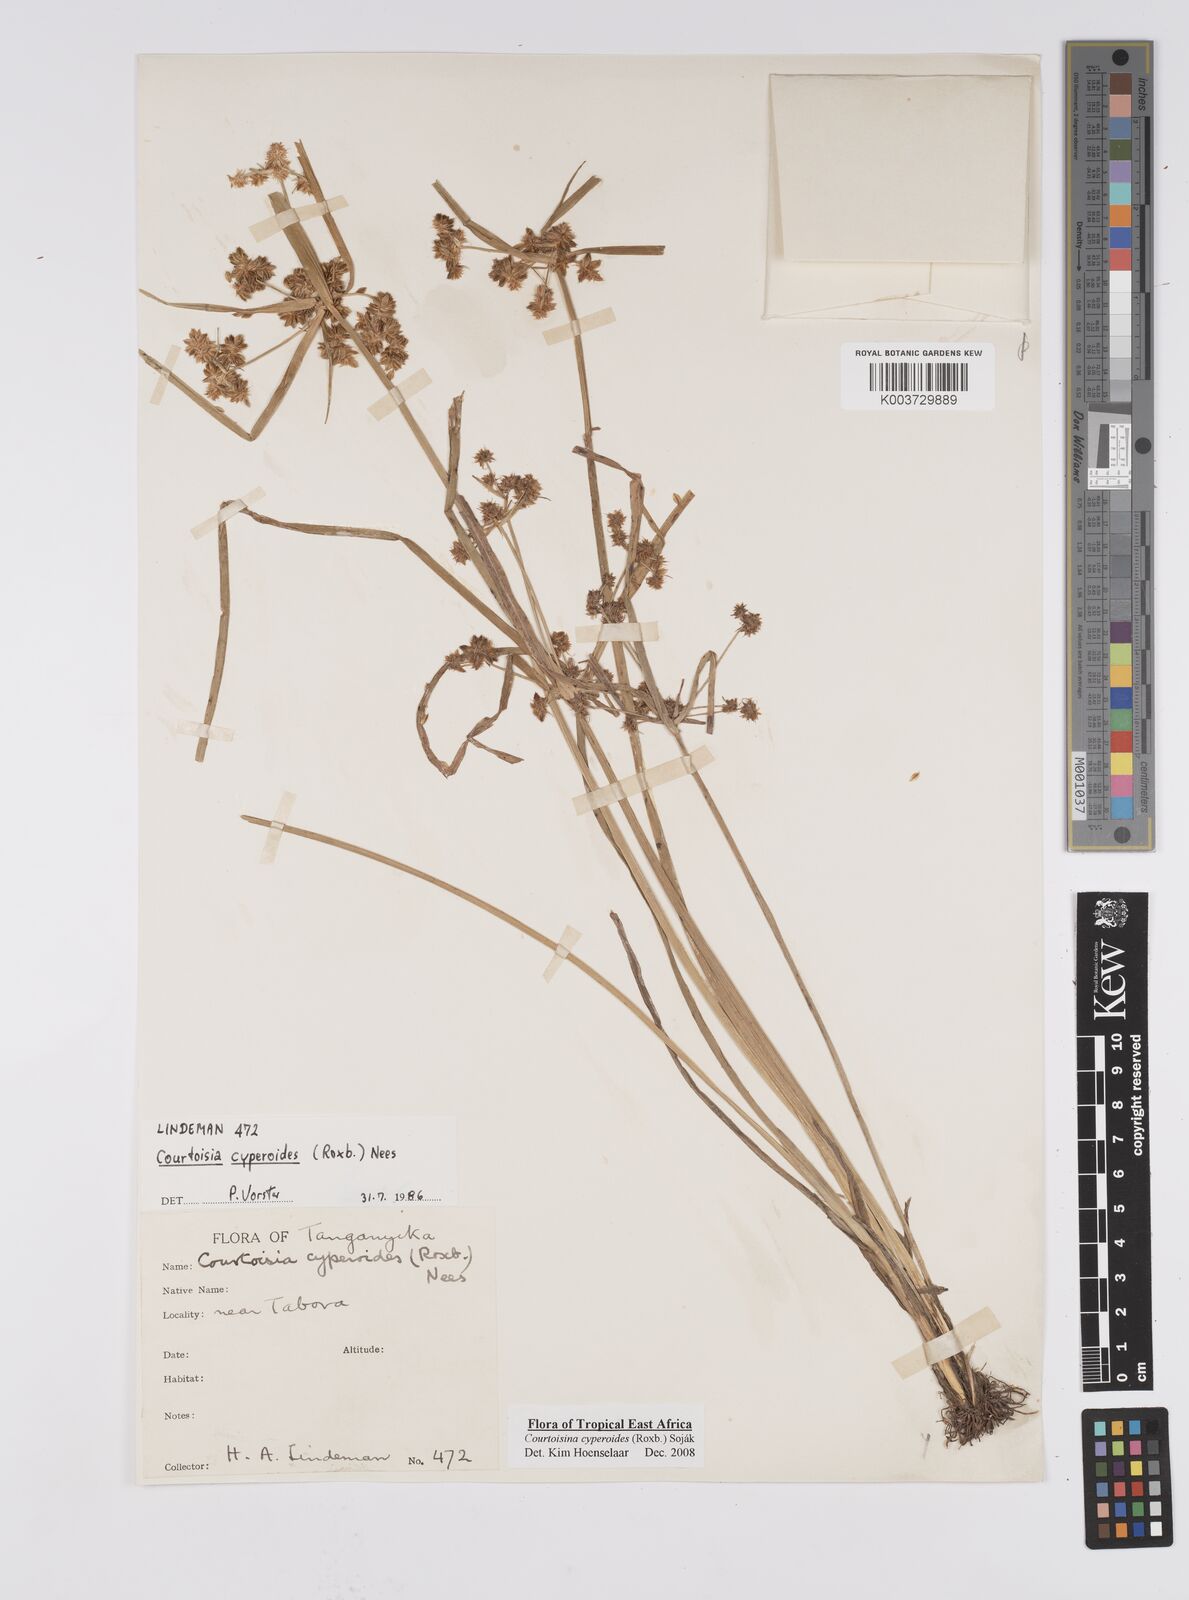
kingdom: Plantae
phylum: Tracheophyta
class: Liliopsida
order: Poales
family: Cyperaceae
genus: Cyperus
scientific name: Cyperus cyperoides
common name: Pacific island flat sedge
